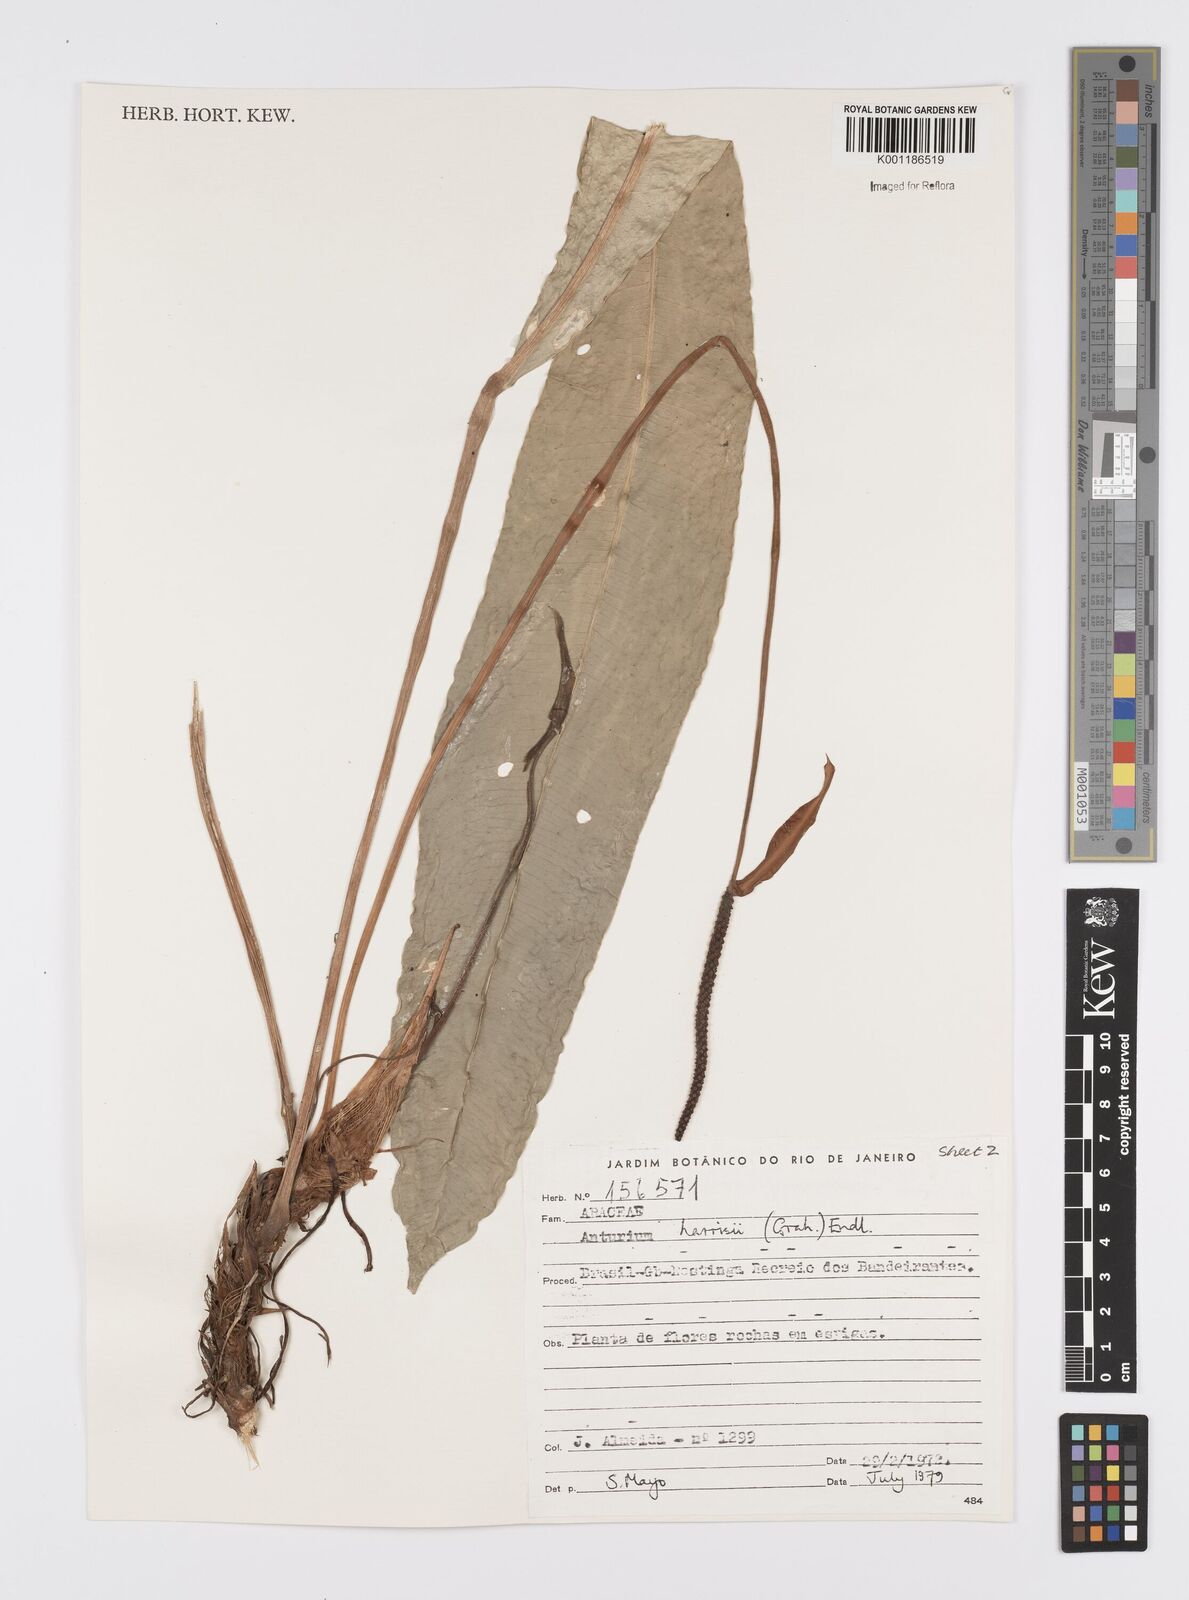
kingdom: Plantae
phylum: Tracheophyta
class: Liliopsida
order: Alismatales
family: Araceae
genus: Anthurium
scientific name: Anthurium harrisii
